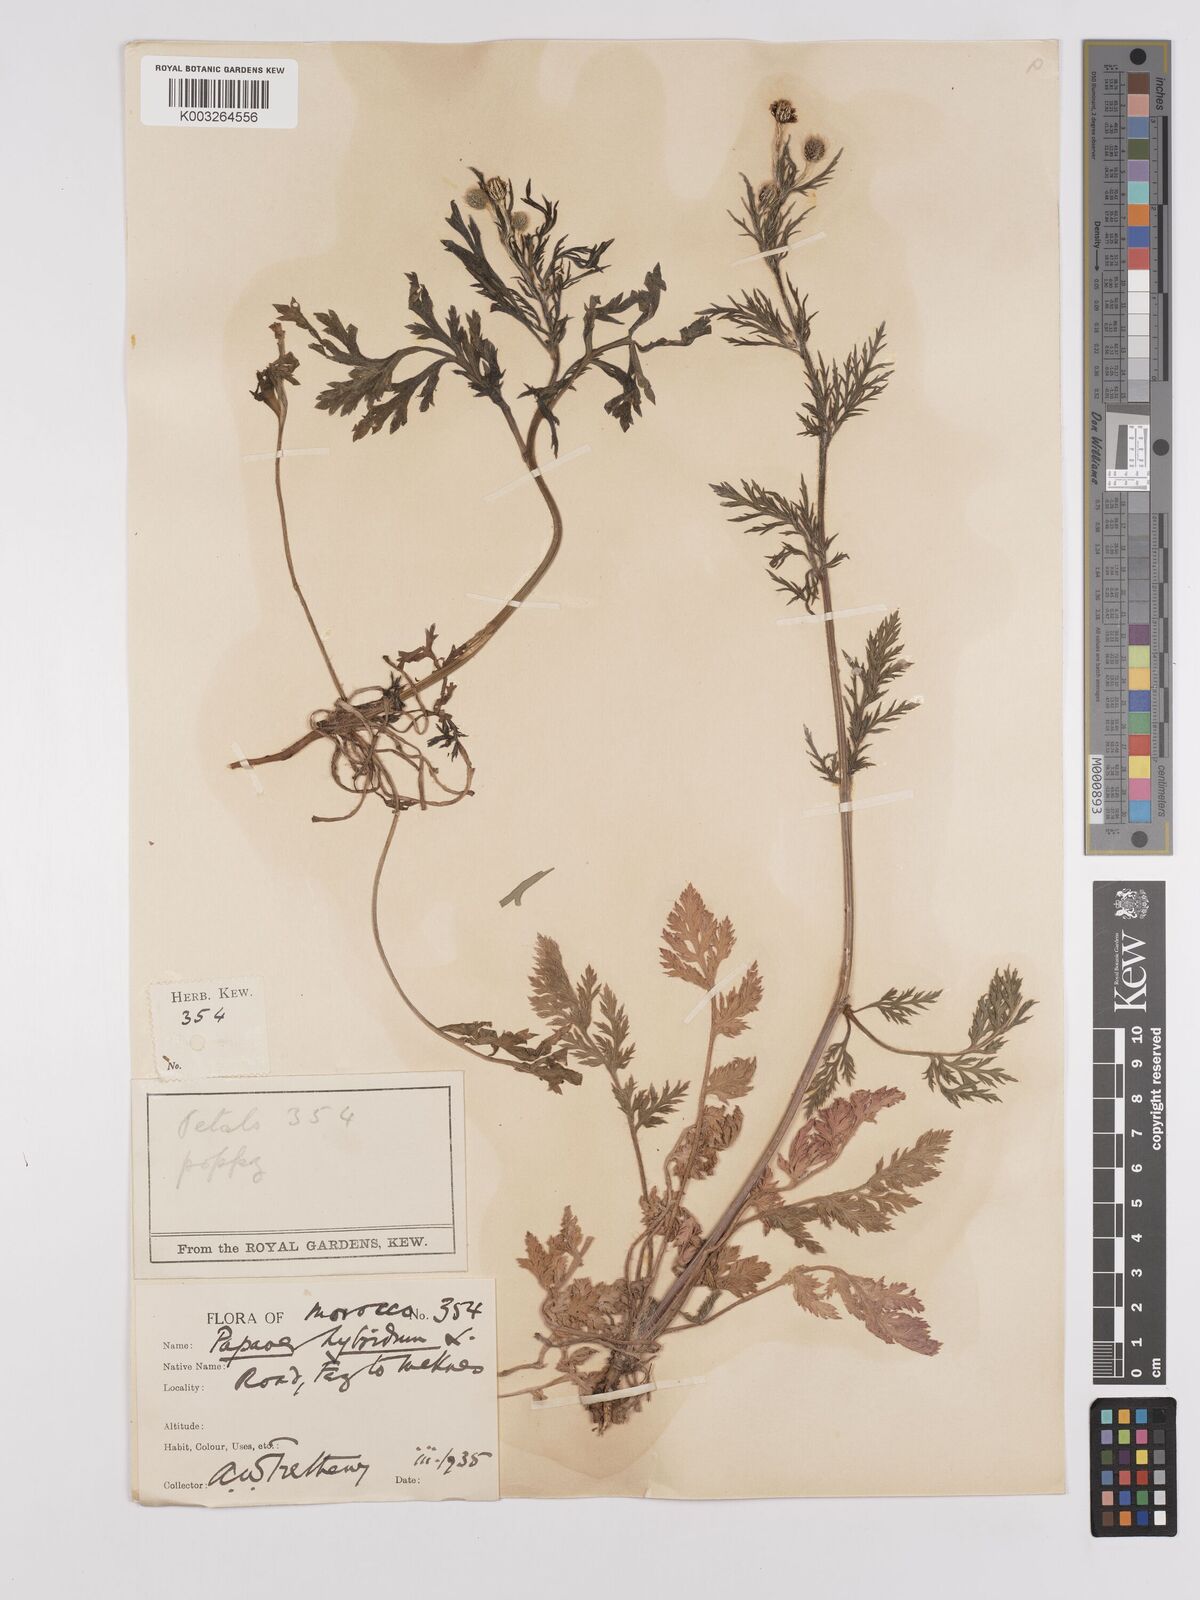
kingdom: Plantae
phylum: Tracheophyta
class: Magnoliopsida
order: Ranunculales
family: Papaveraceae
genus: Papaver
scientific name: Papaver
